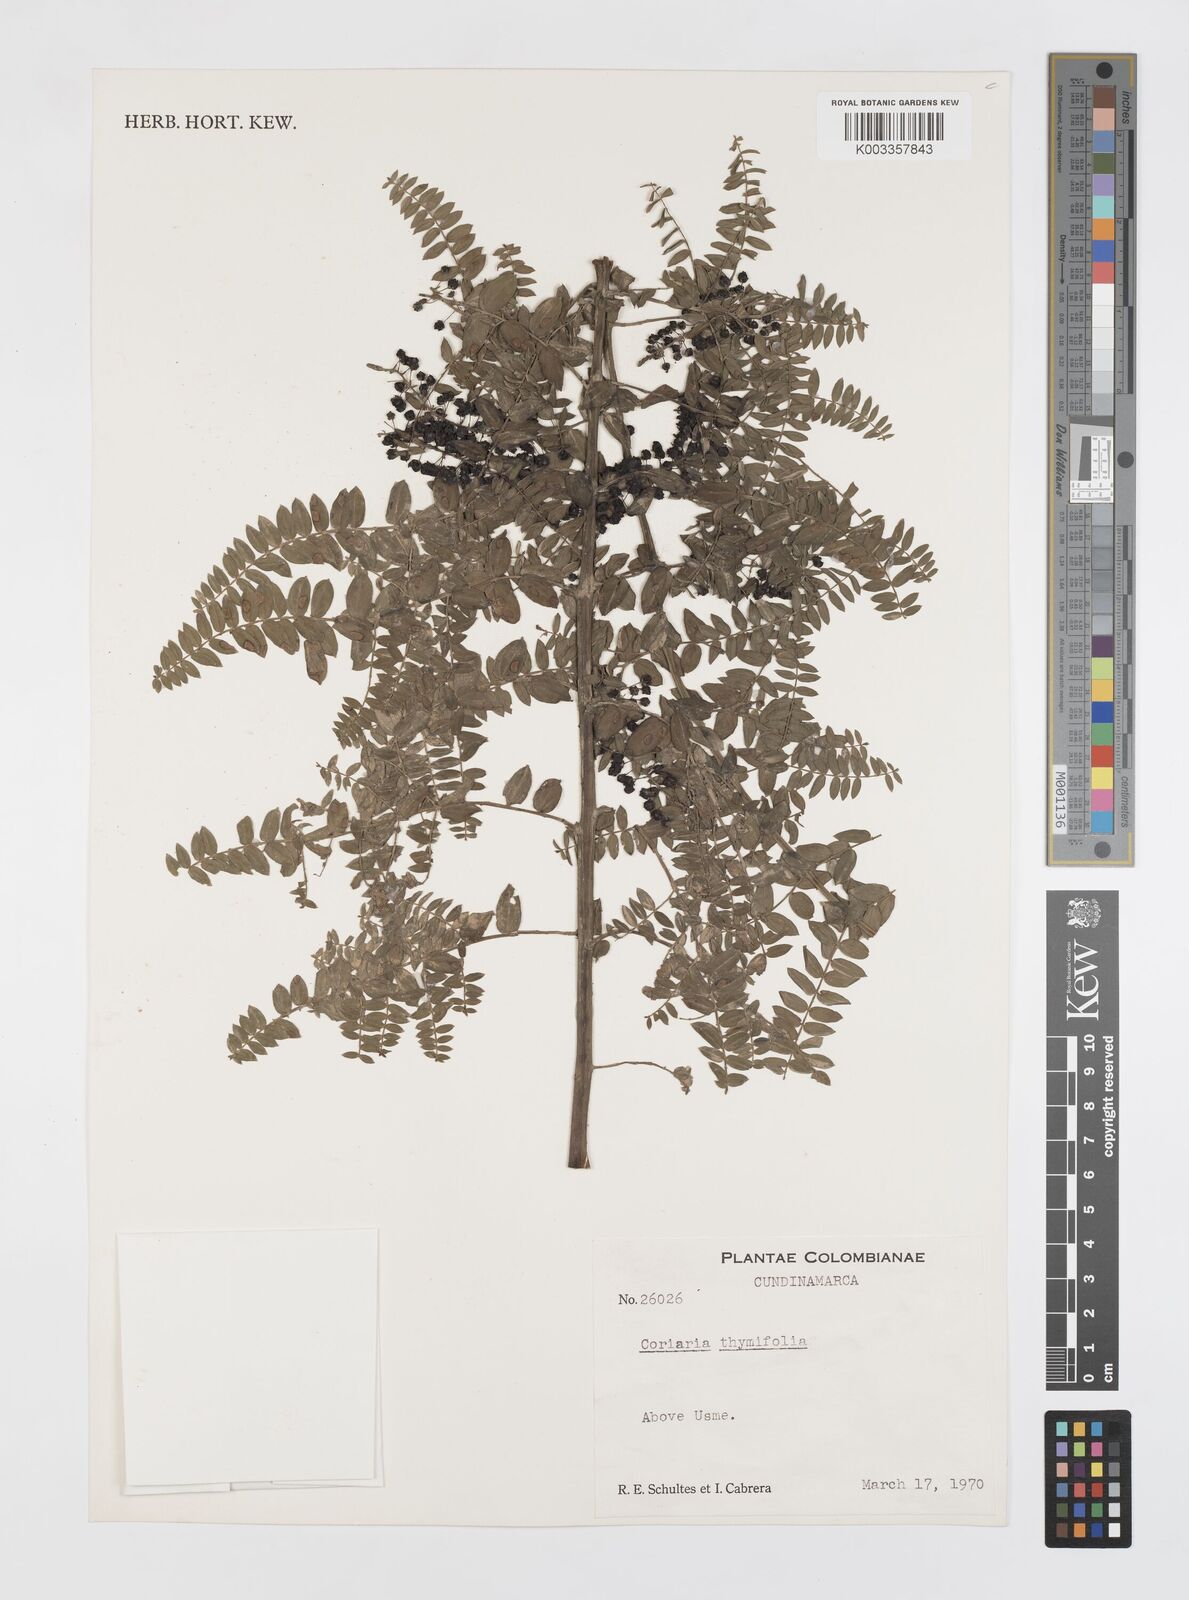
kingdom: Plantae
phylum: Tracheophyta
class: Magnoliopsida
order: Cucurbitales
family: Coriariaceae
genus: Coriaria
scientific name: Coriaria microphylla
